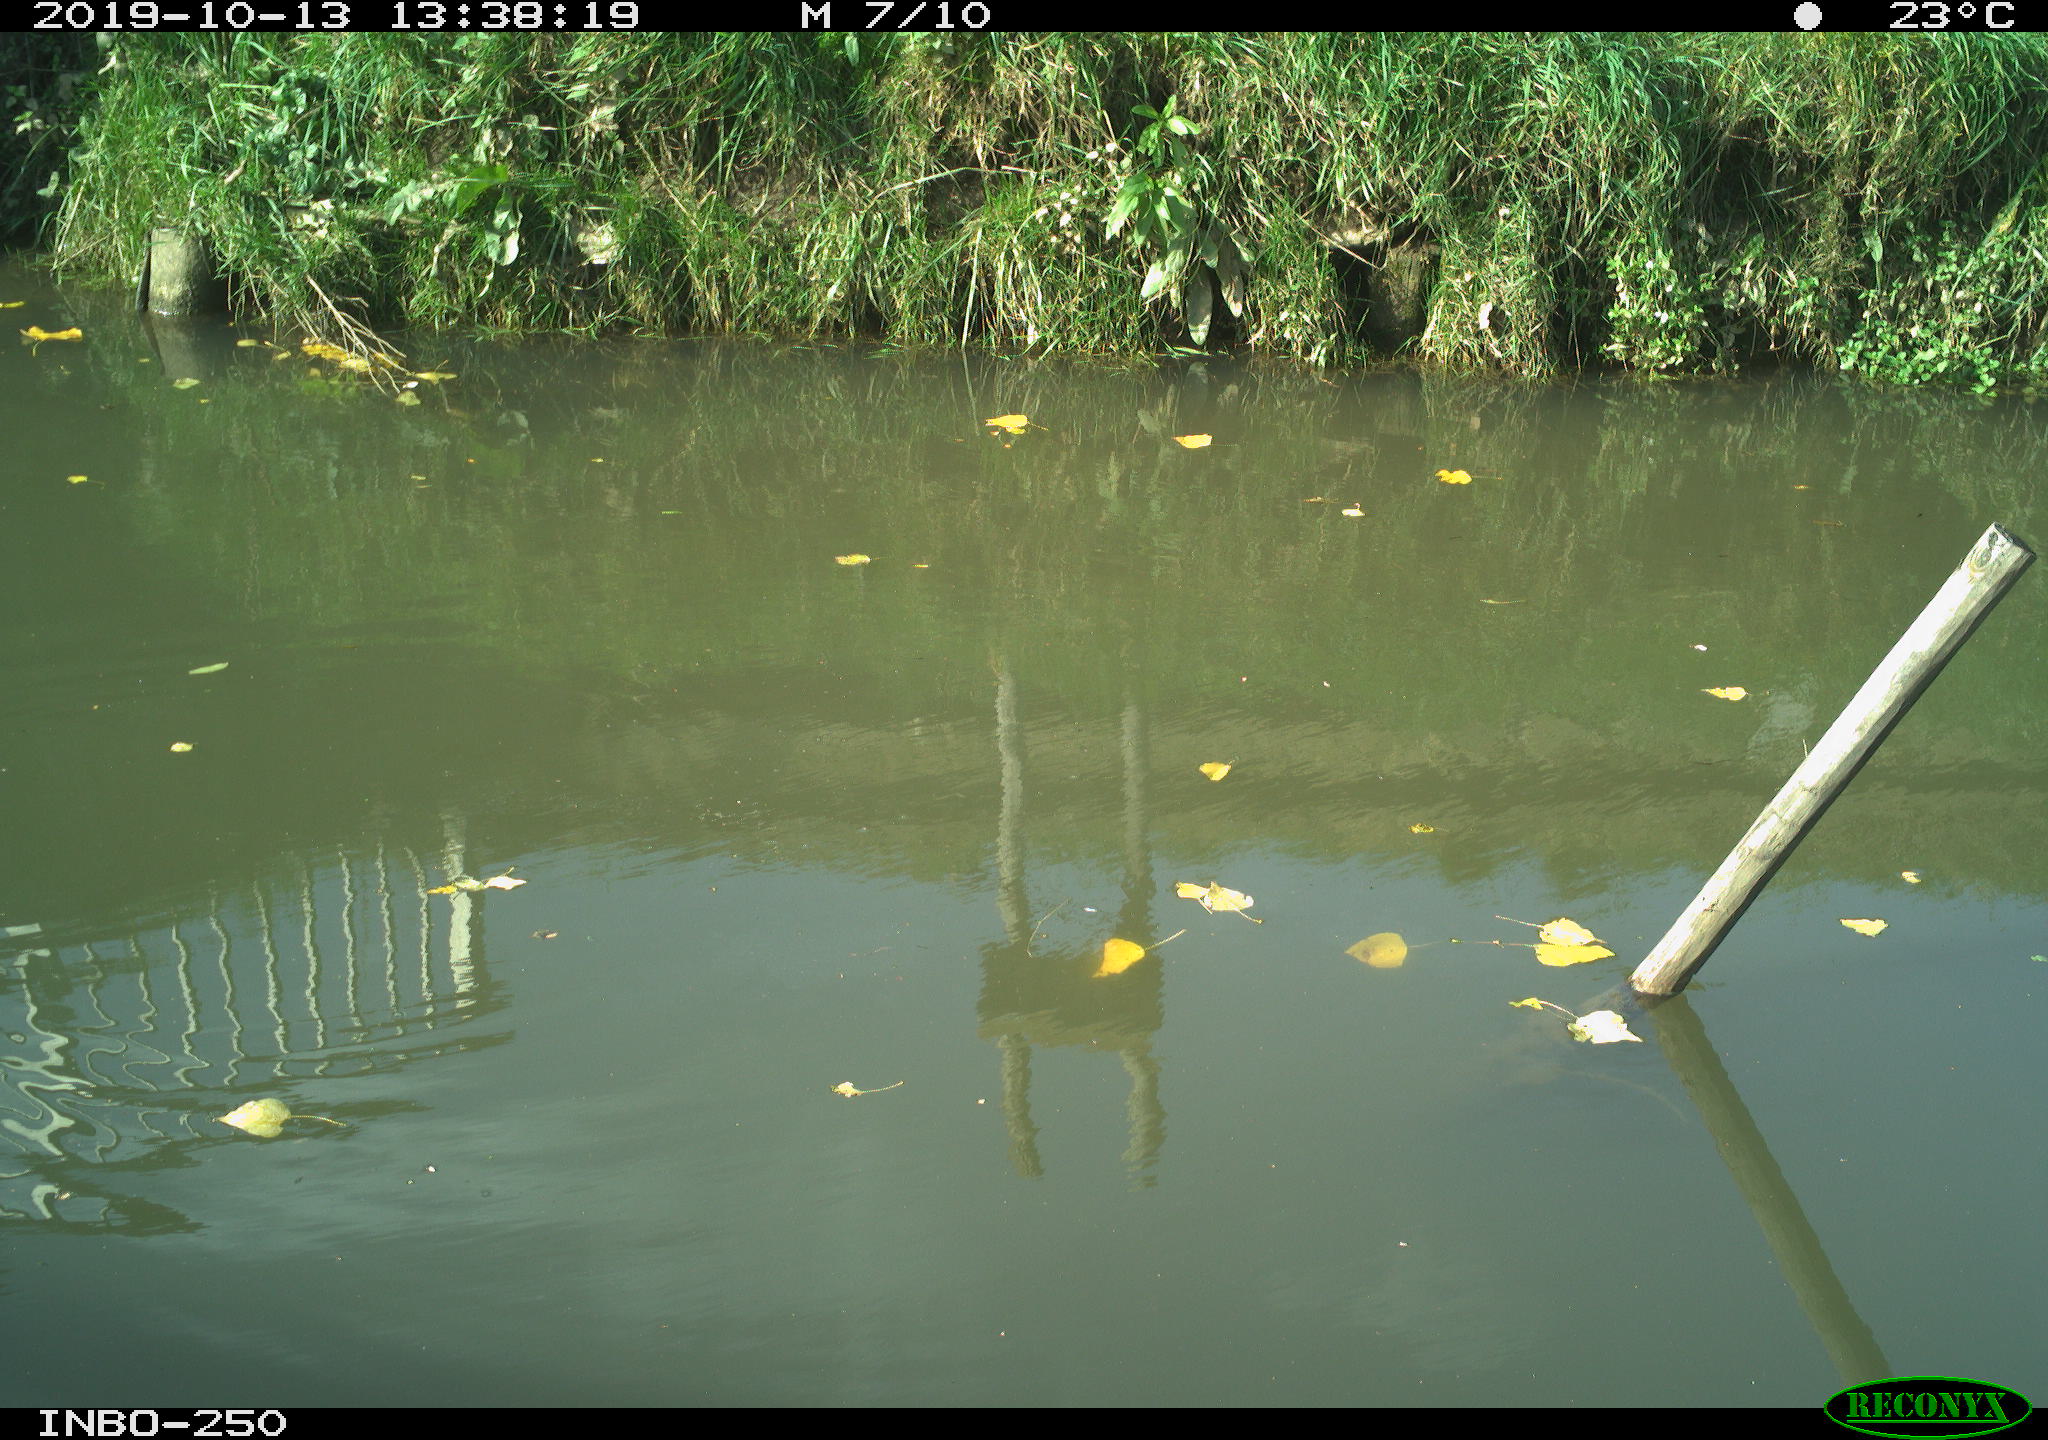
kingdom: Animalia
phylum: Chordata
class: Aves
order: Gruiformes
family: Rallidae
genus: Gallinula
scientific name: Gallinula chloropus
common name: Common moorhen
